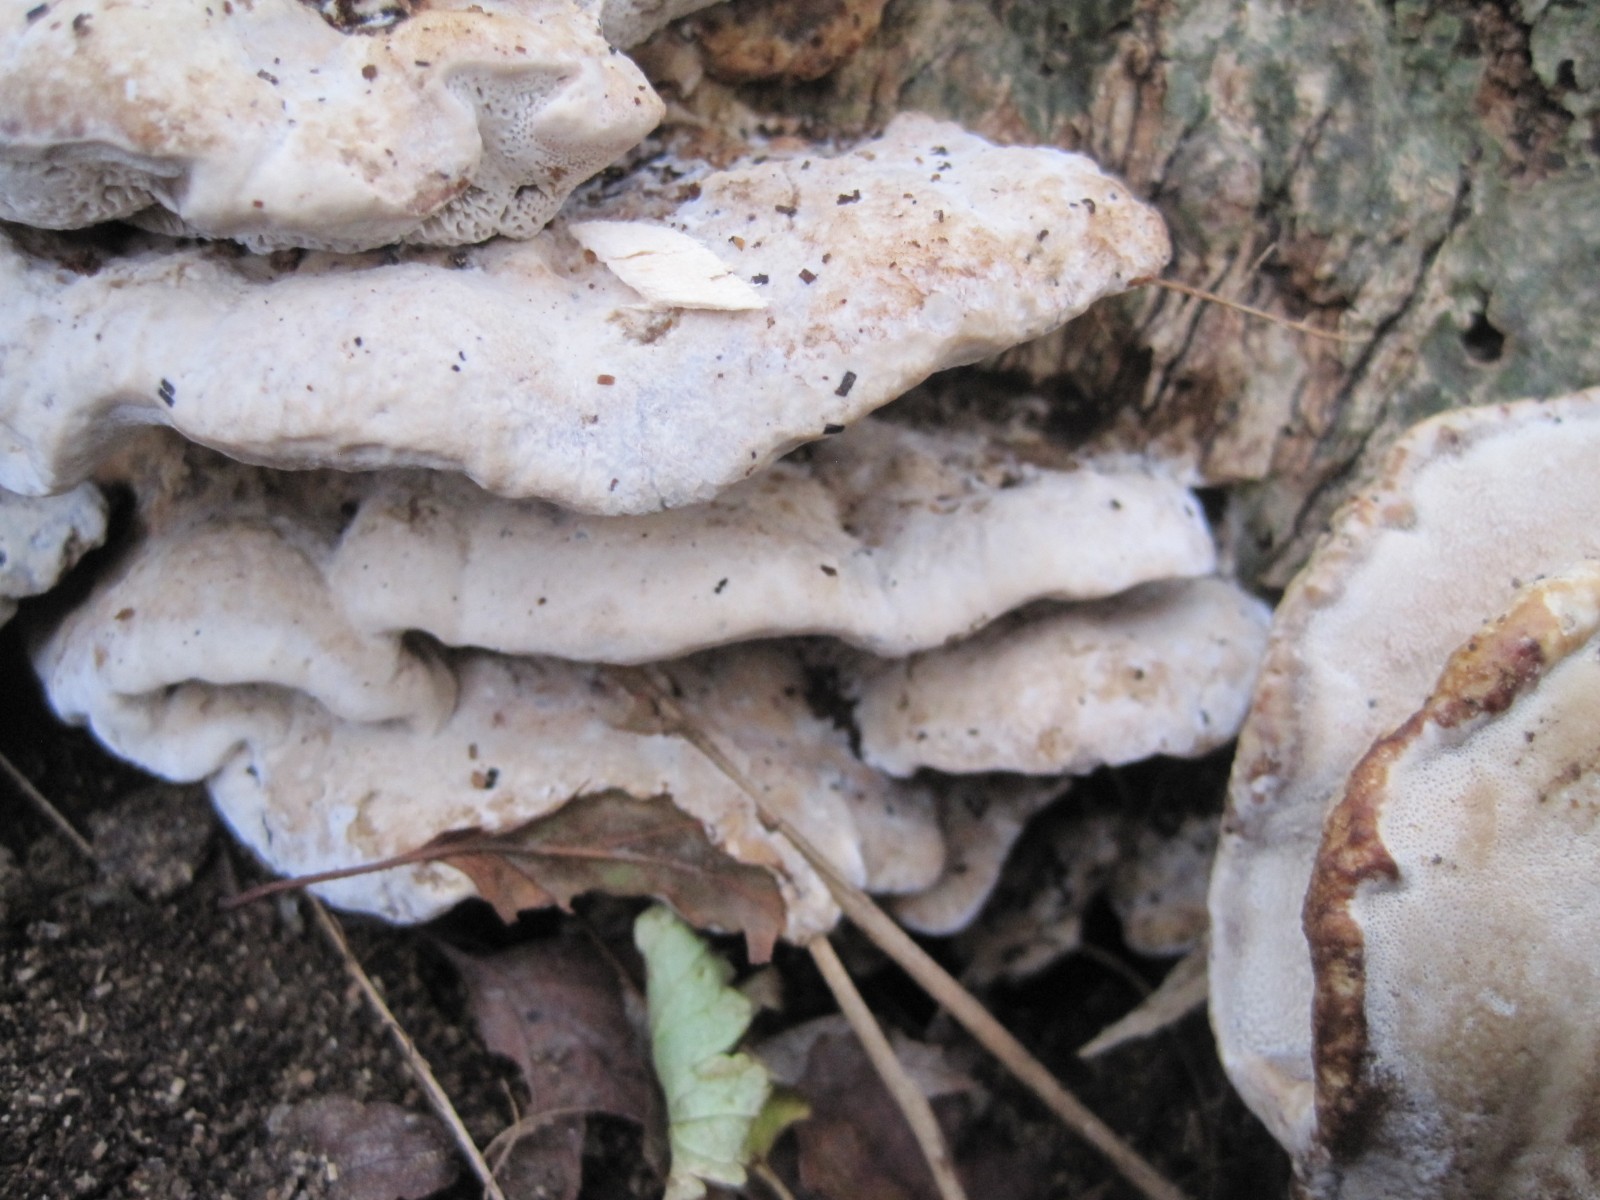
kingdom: Fungi
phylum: Basidiomycota
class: Agaricomycetes
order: Polyporales
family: Phanerochaetaceae
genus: Bjerkandera
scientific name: Bjerkandera fumosa
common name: grågul sodporesvamp
